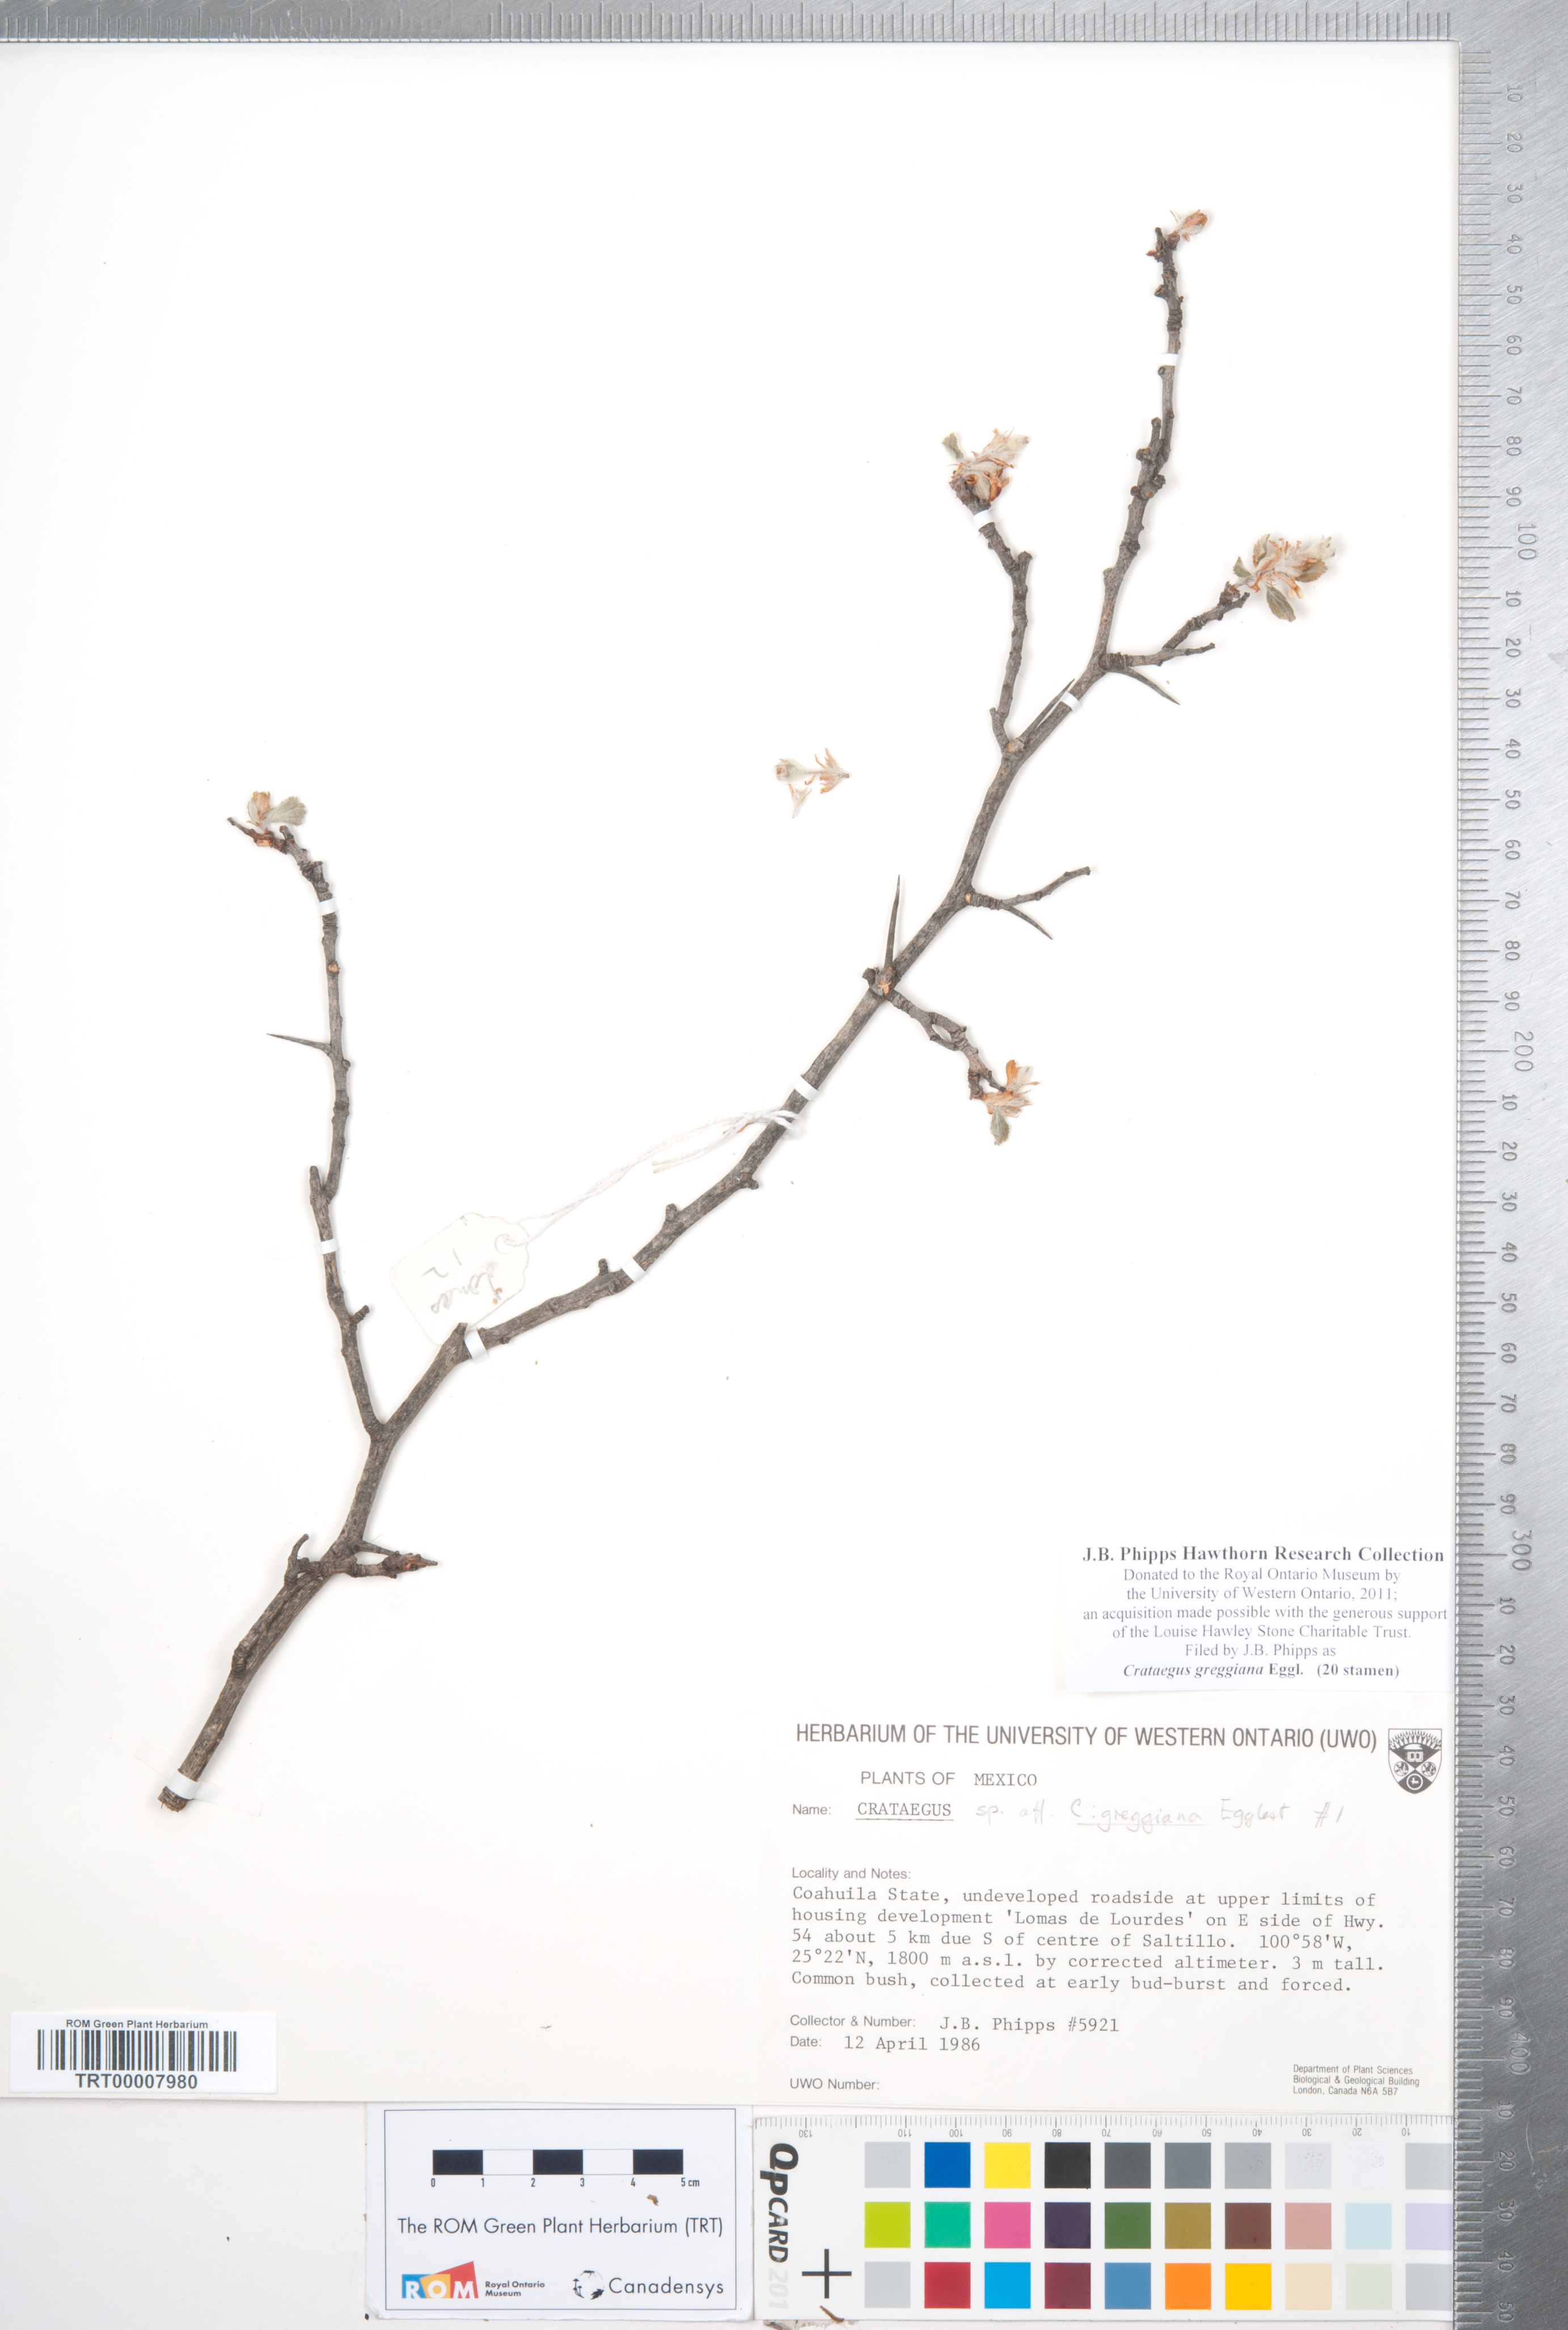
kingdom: Plantae
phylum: Tracheophyta
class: Magnoliopsida
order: Rosales
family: Rosaceae
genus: Crataegus
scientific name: Crataegus greggiana
